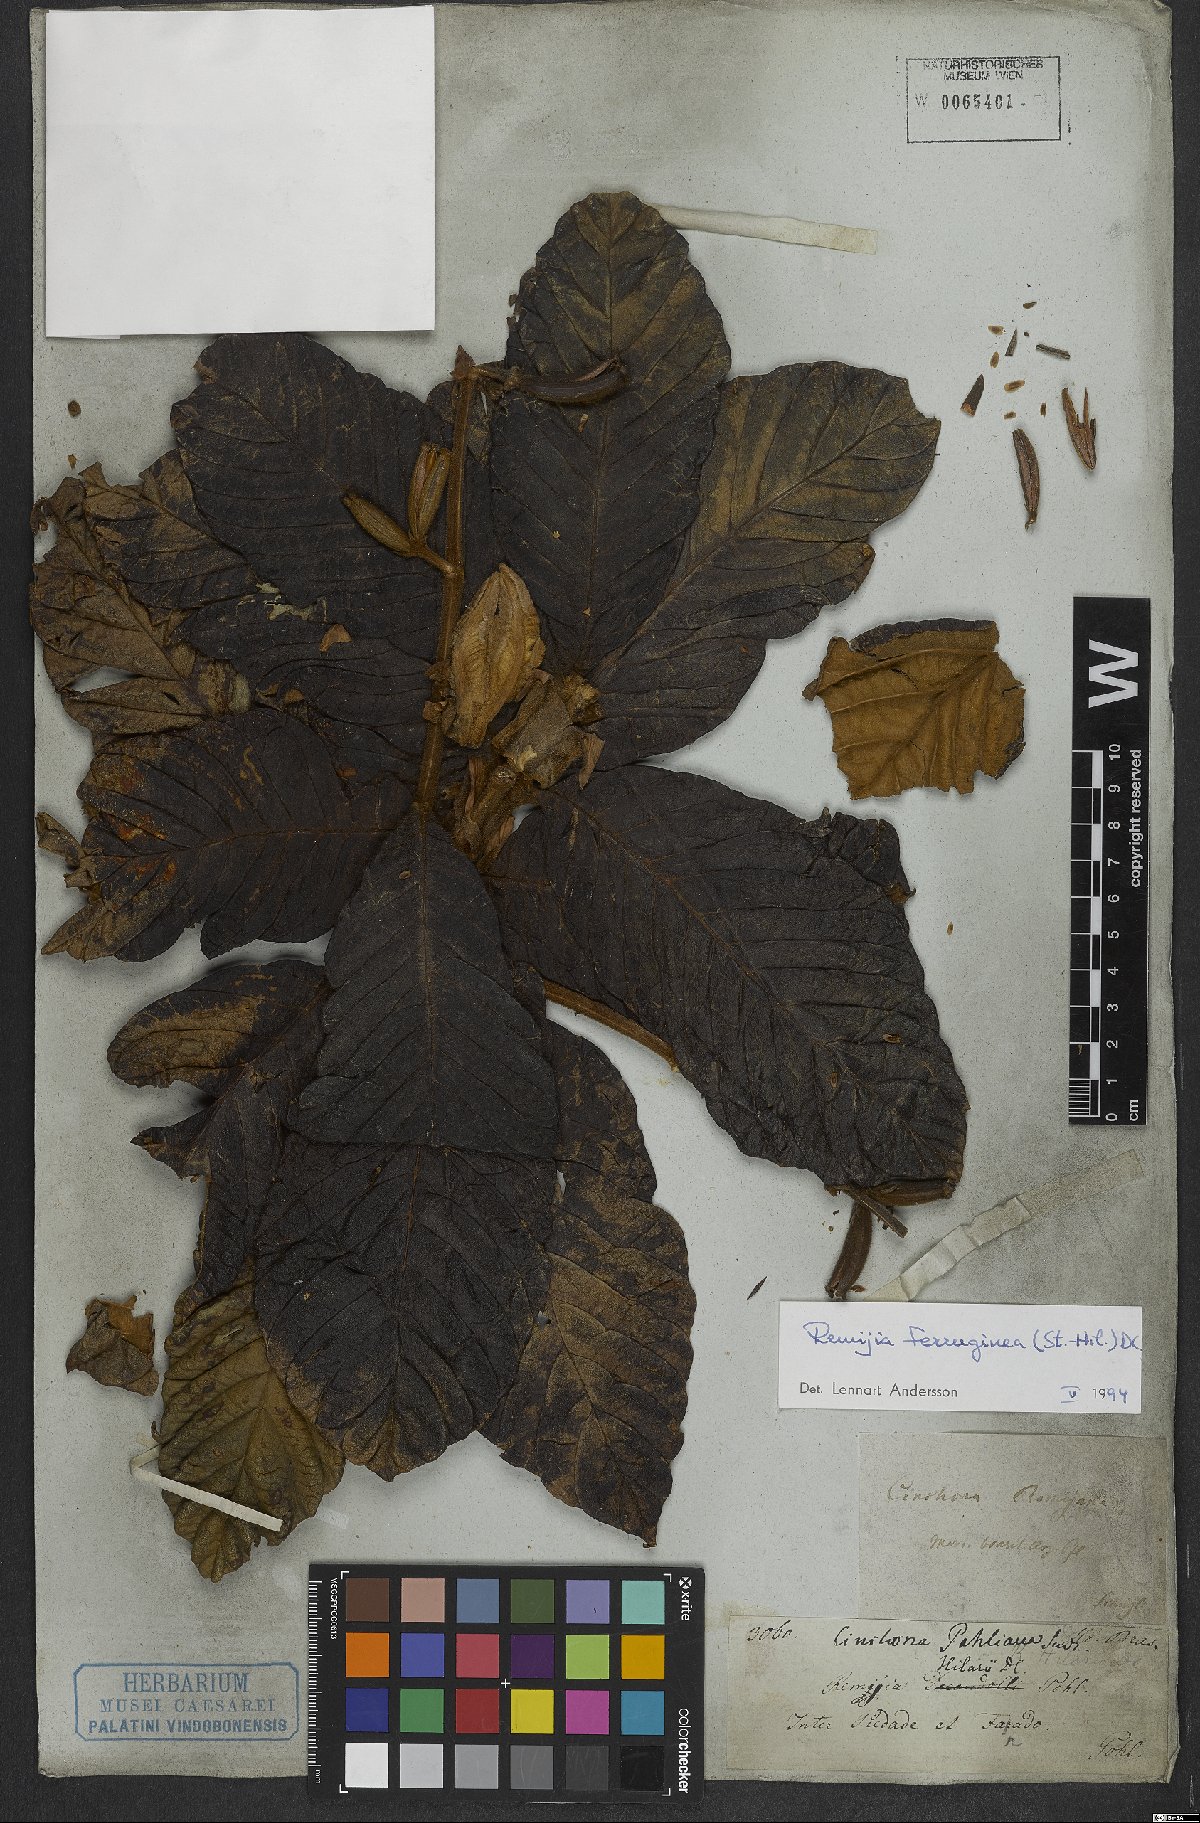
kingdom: Plantae
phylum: Tracheophyta
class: Magnoliopsida
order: Gentianales
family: Rubiaceae
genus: Remijia
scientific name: Remijia ferruginea
